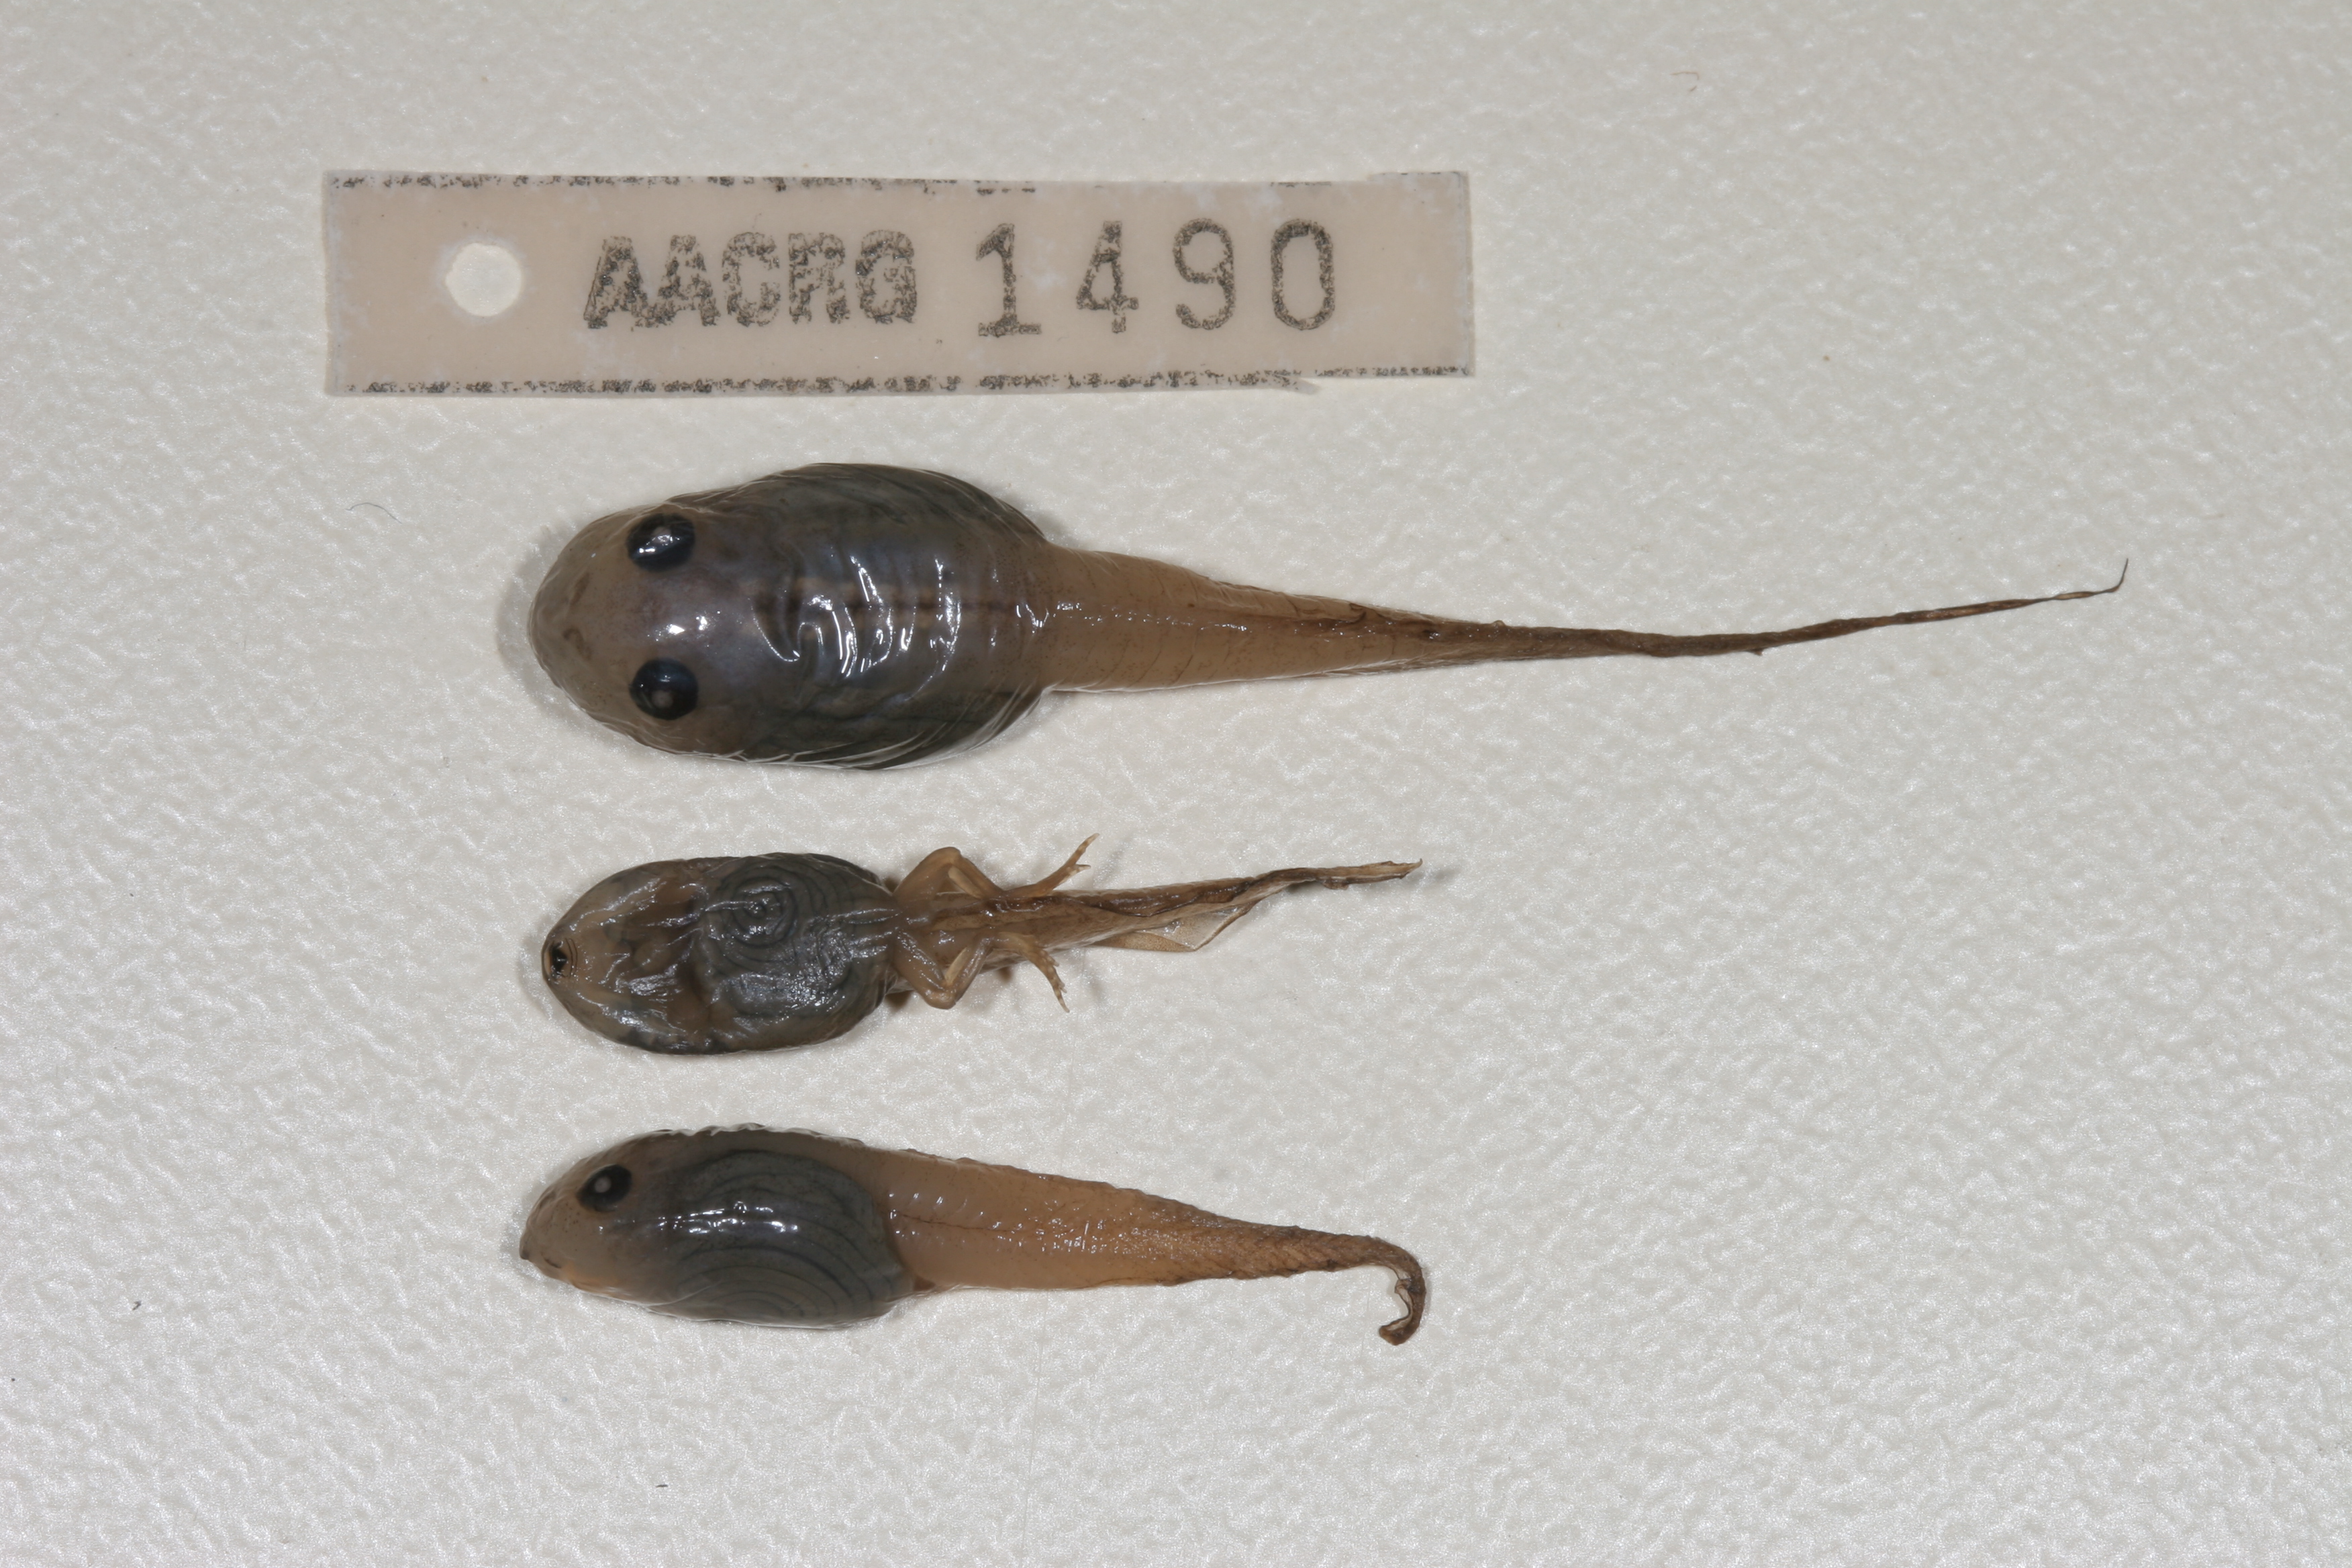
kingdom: Animalia
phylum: Chordata
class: Amphibia
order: Anura
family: Rhacophoridae
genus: Chiromantis
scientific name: Chiromantis xerampelina
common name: African gray treefrog
